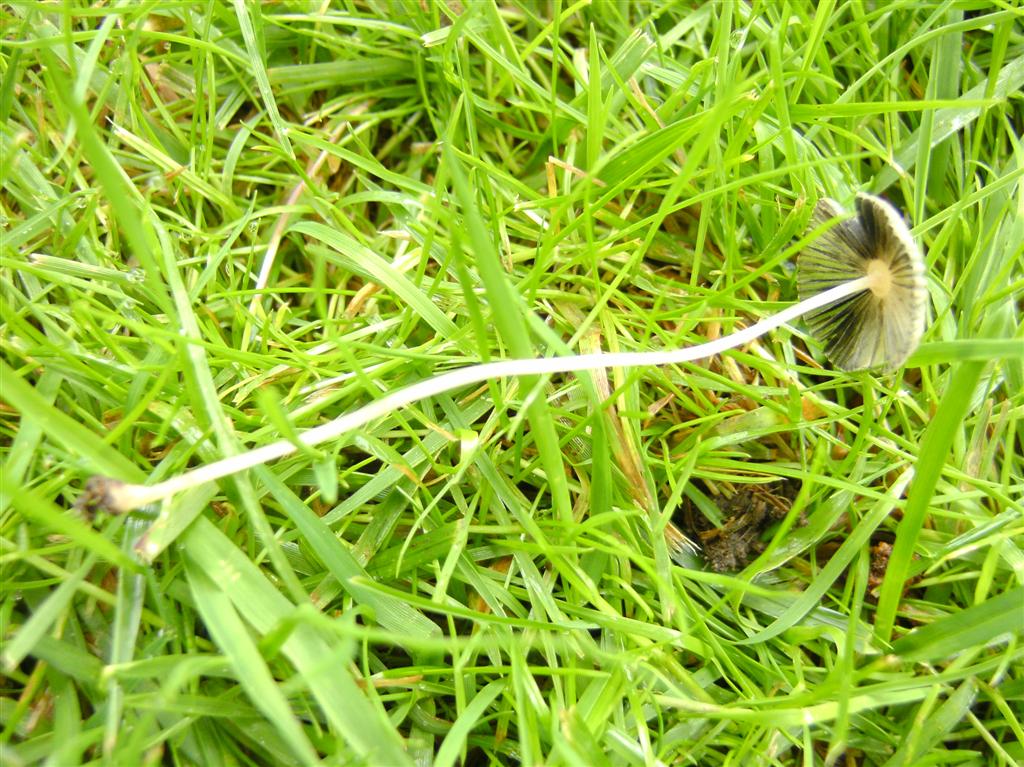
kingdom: Fungi
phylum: Basidiomycota
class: Agaricomycetes
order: Agaricales
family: Psathyrellaceae
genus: Parasola
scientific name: Parasola lactea
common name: glat hjulhat
